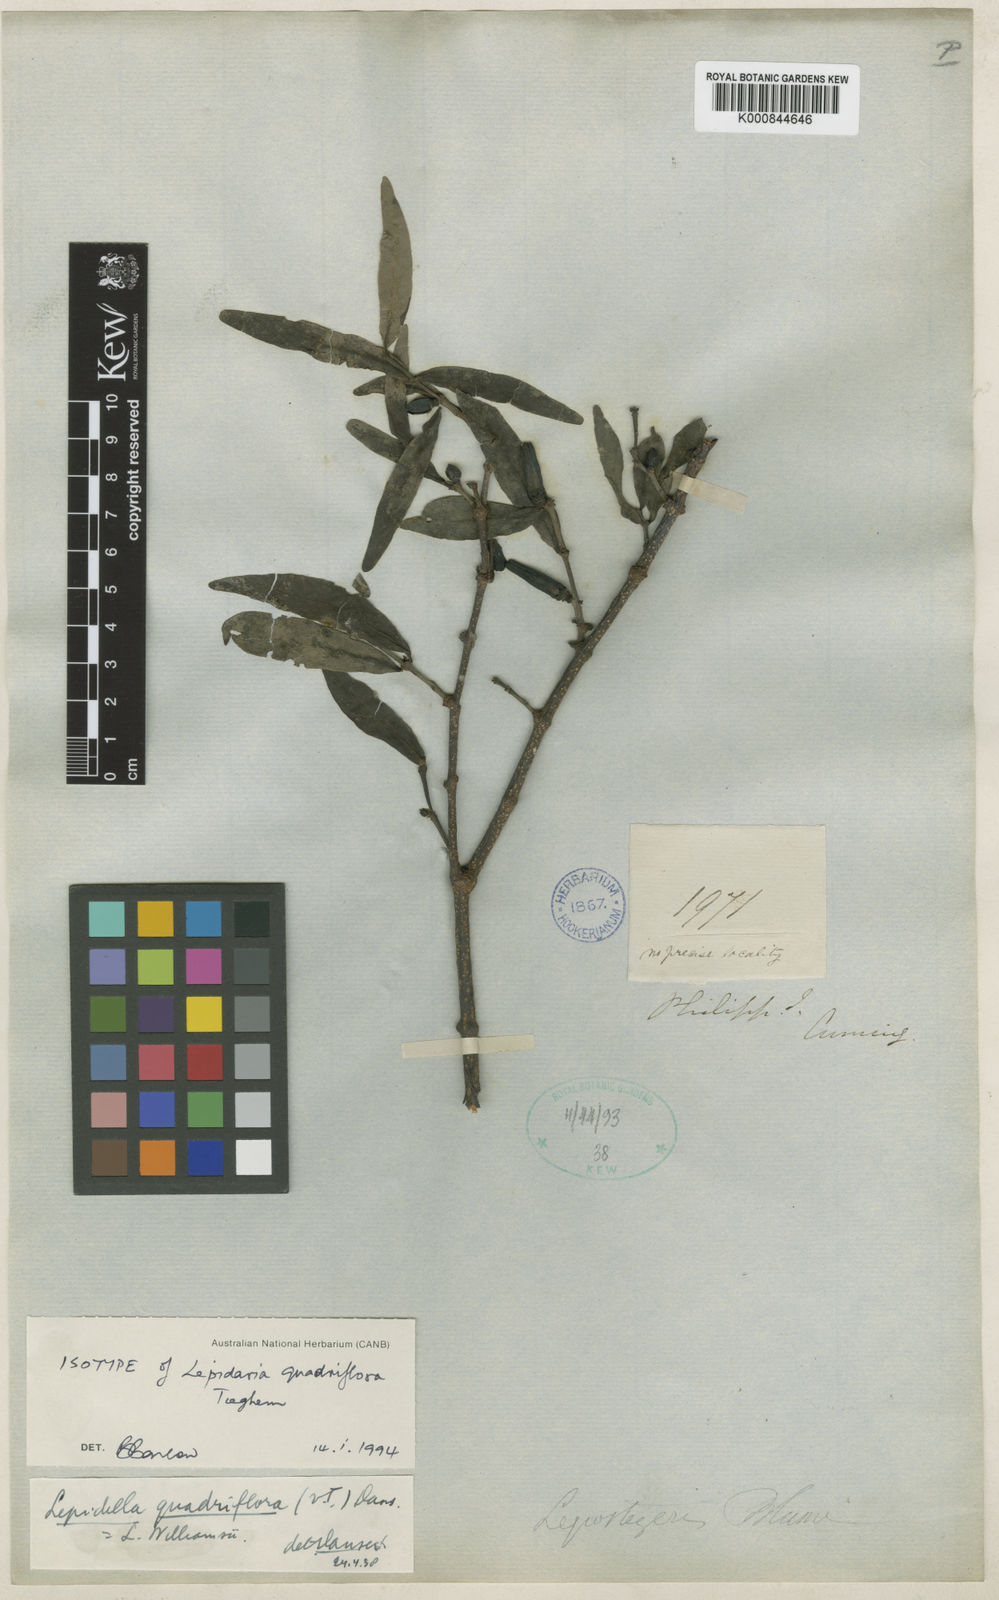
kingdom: Plantae
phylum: Tracheophyta
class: Magnoliopsida
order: Santalales
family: Loranthaceae
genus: Lepidaria
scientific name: Lepidaria quadriflora
